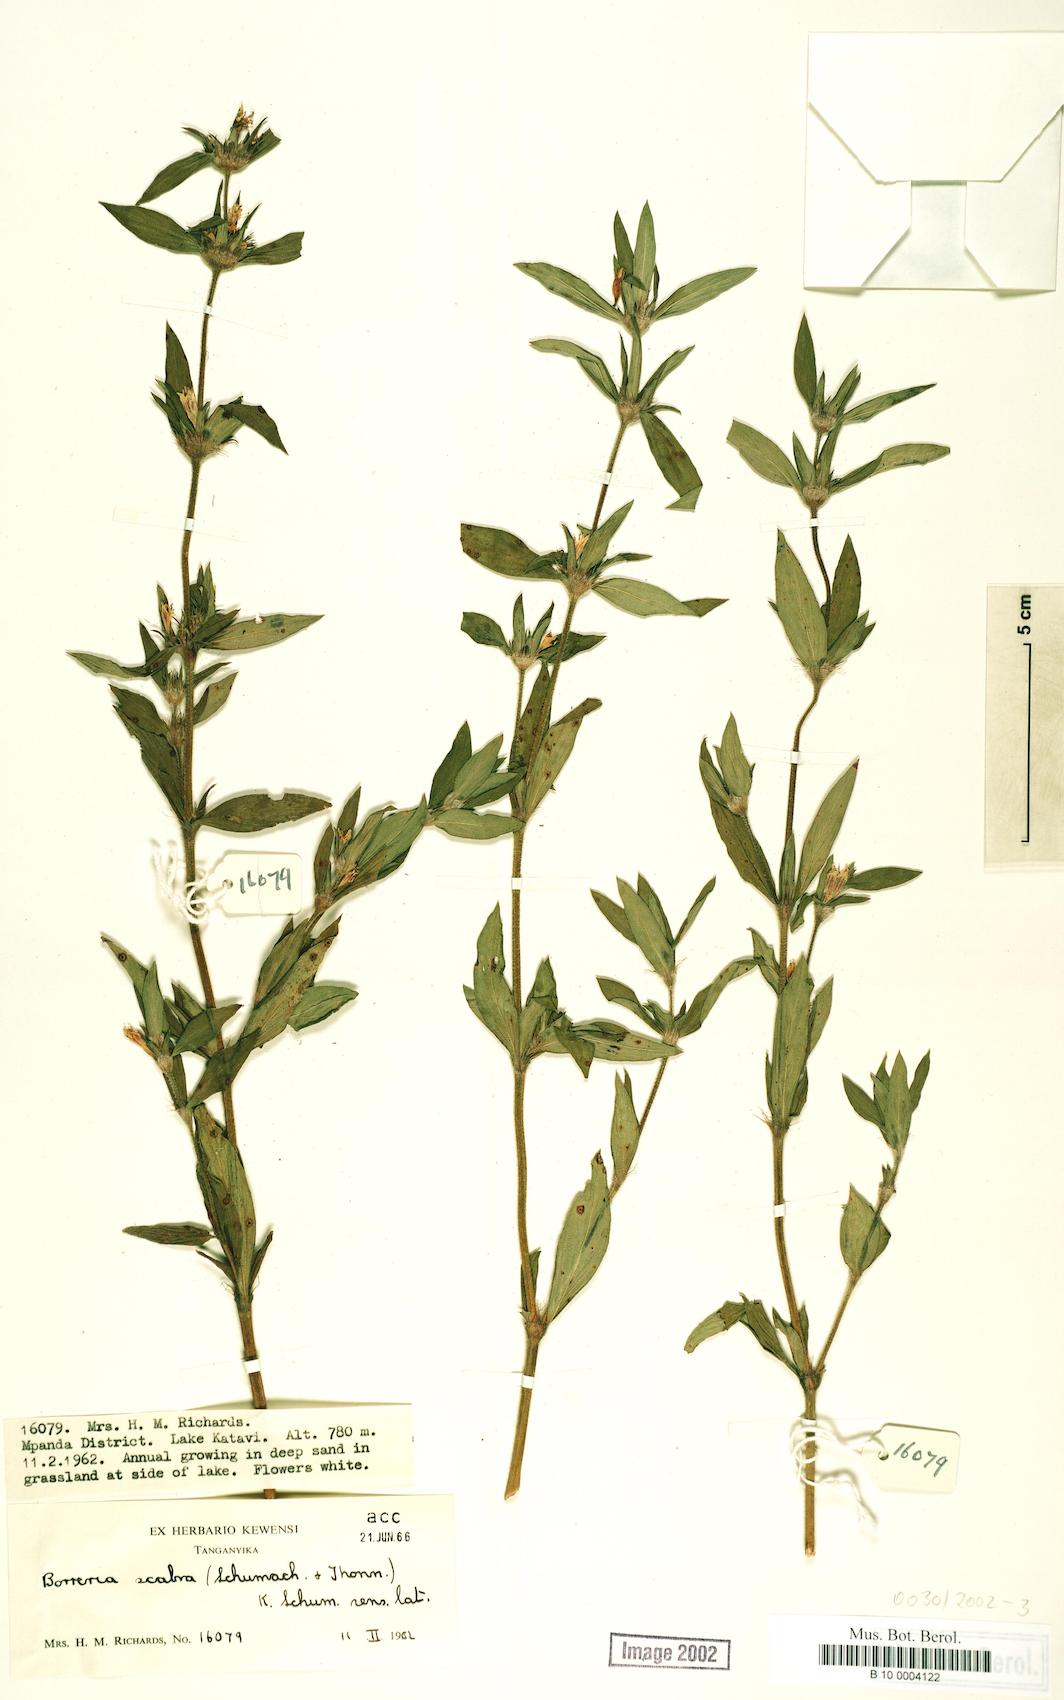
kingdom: Plantae
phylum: Tracheophyta
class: Magnoliopsida
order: Gentianales
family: Rubiaceae
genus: Spermacoce
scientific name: Spermacoce ruelliae
